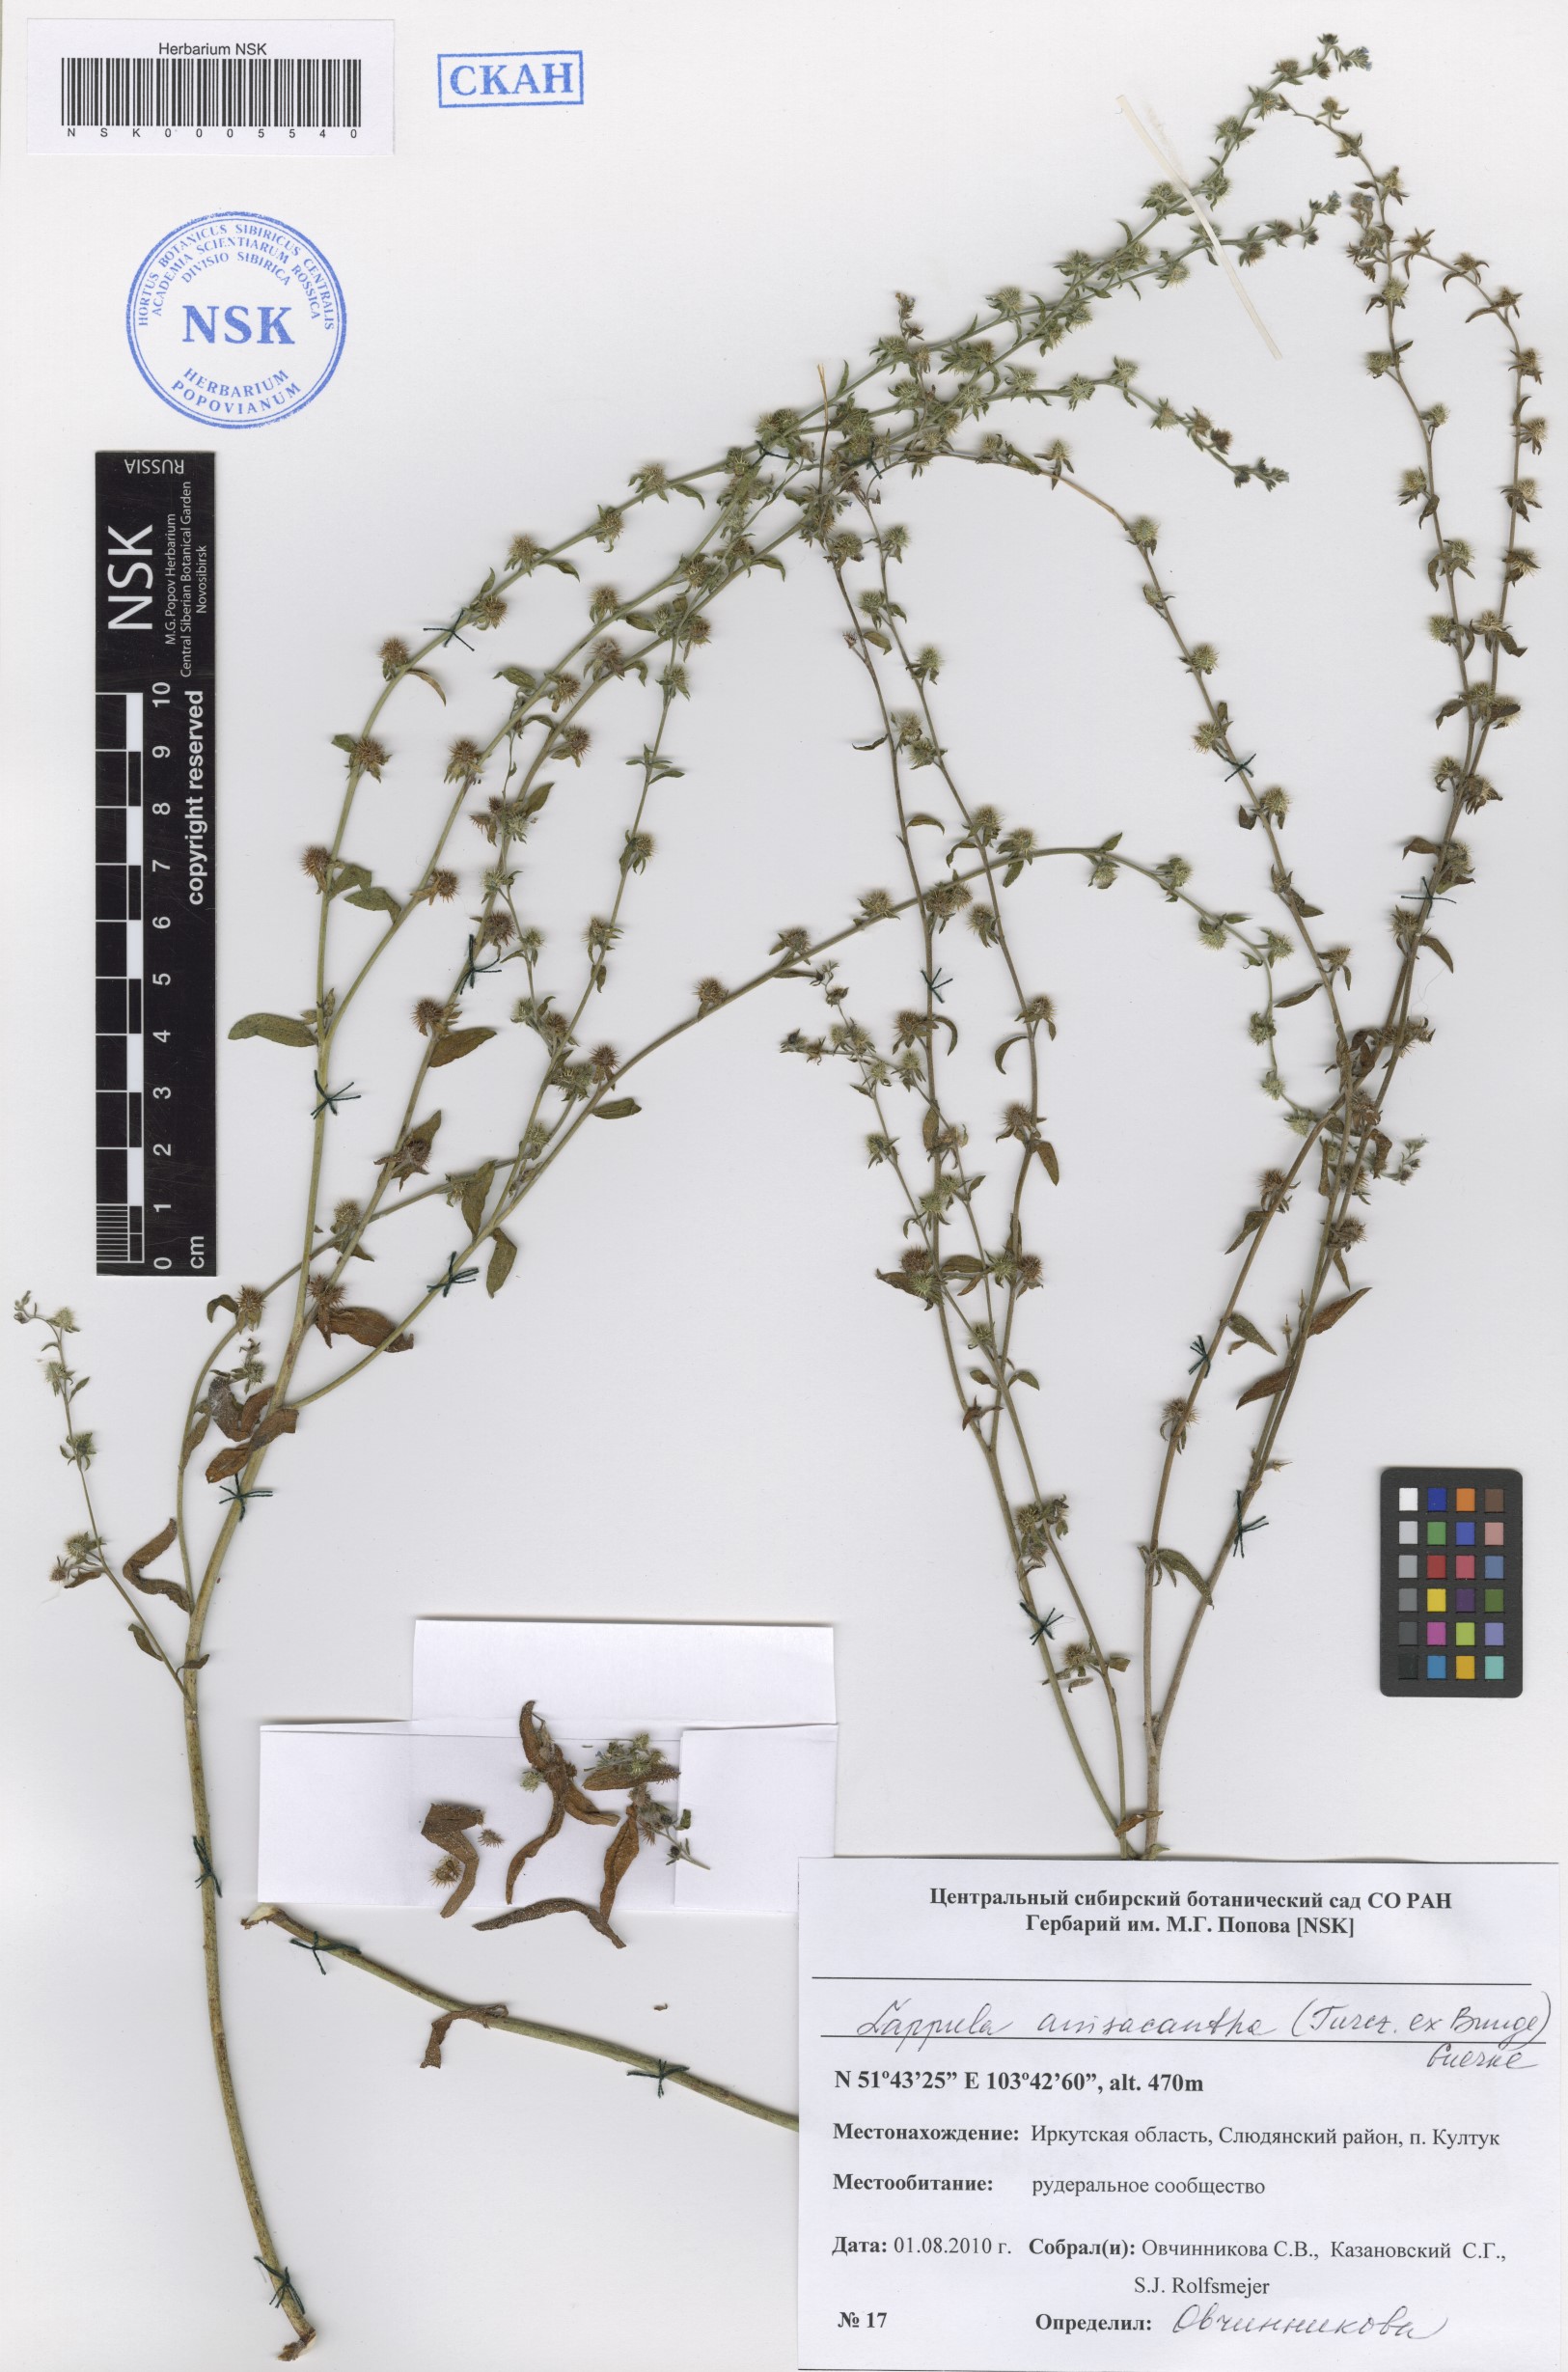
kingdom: Plantae
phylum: Tracheophyta
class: Magnoliopsida
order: Boraginales
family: Boraginaceae
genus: Lappula
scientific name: Lappula intermedia
